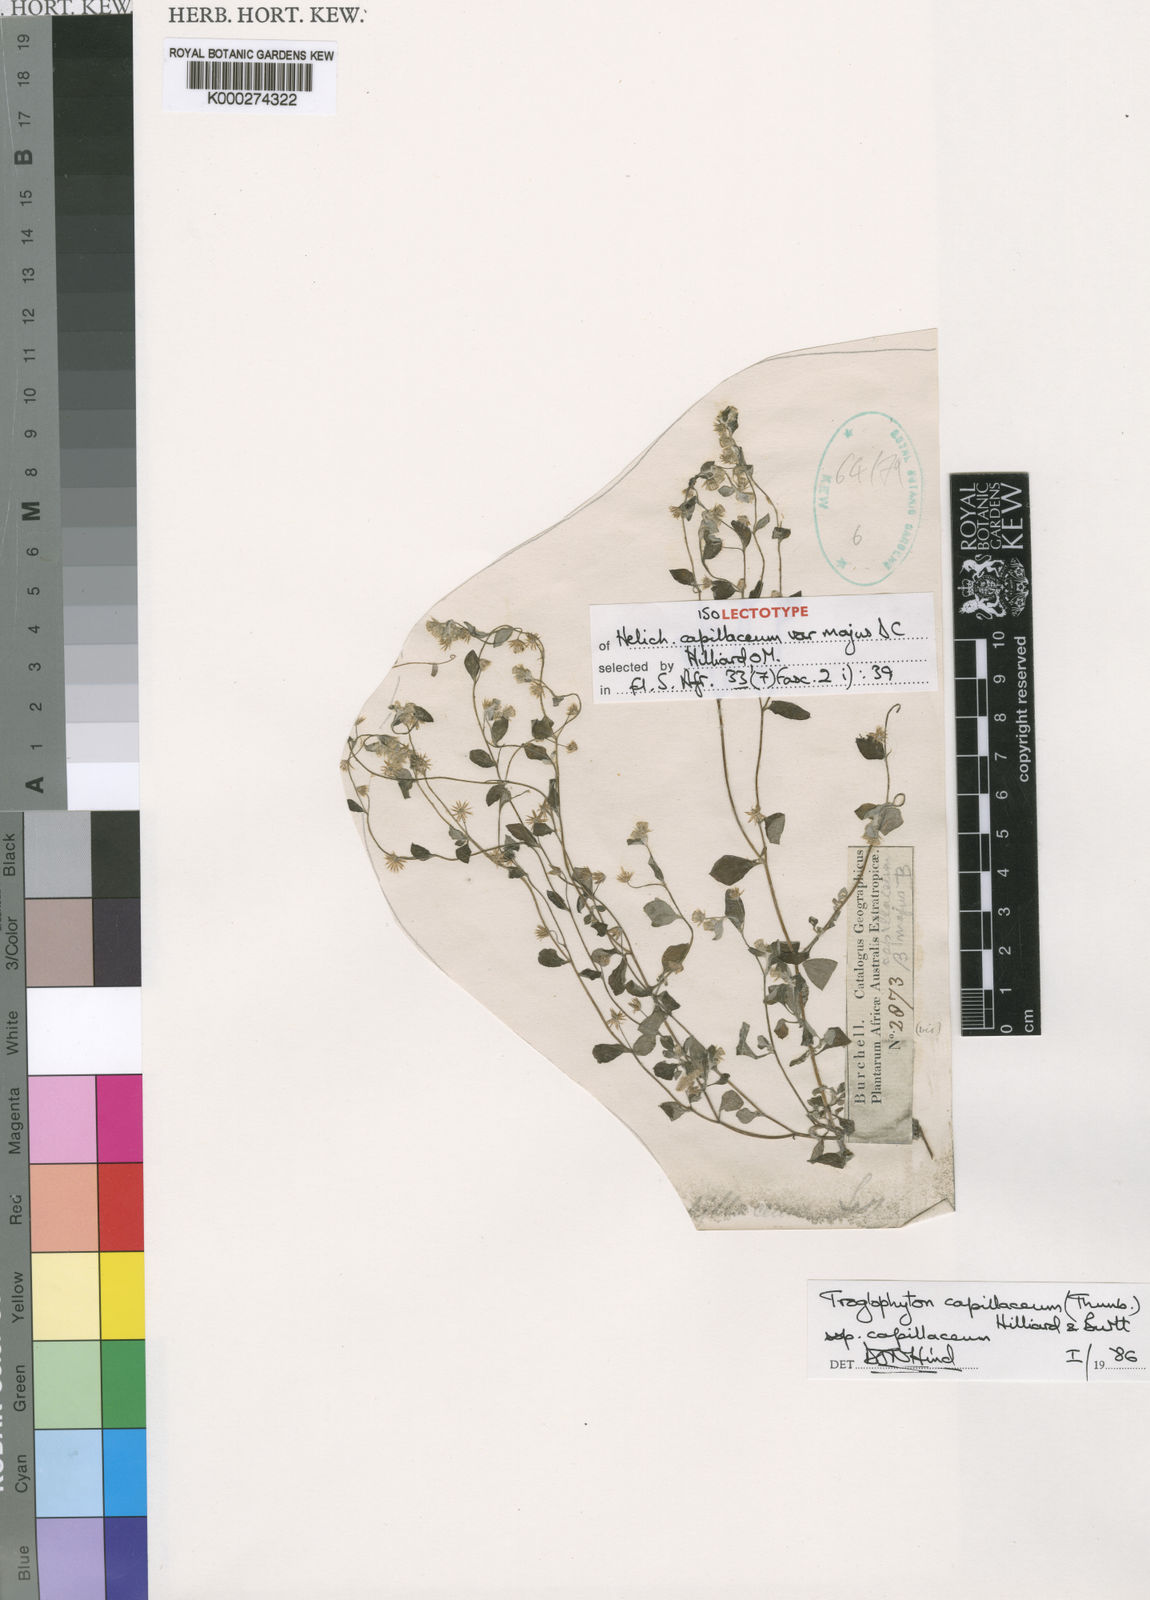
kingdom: Plantae
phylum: Tracheophyta
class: Magnoliopsida
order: Asterales
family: Asteraceae
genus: Troglophyton
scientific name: Troglophyton capillaceum
